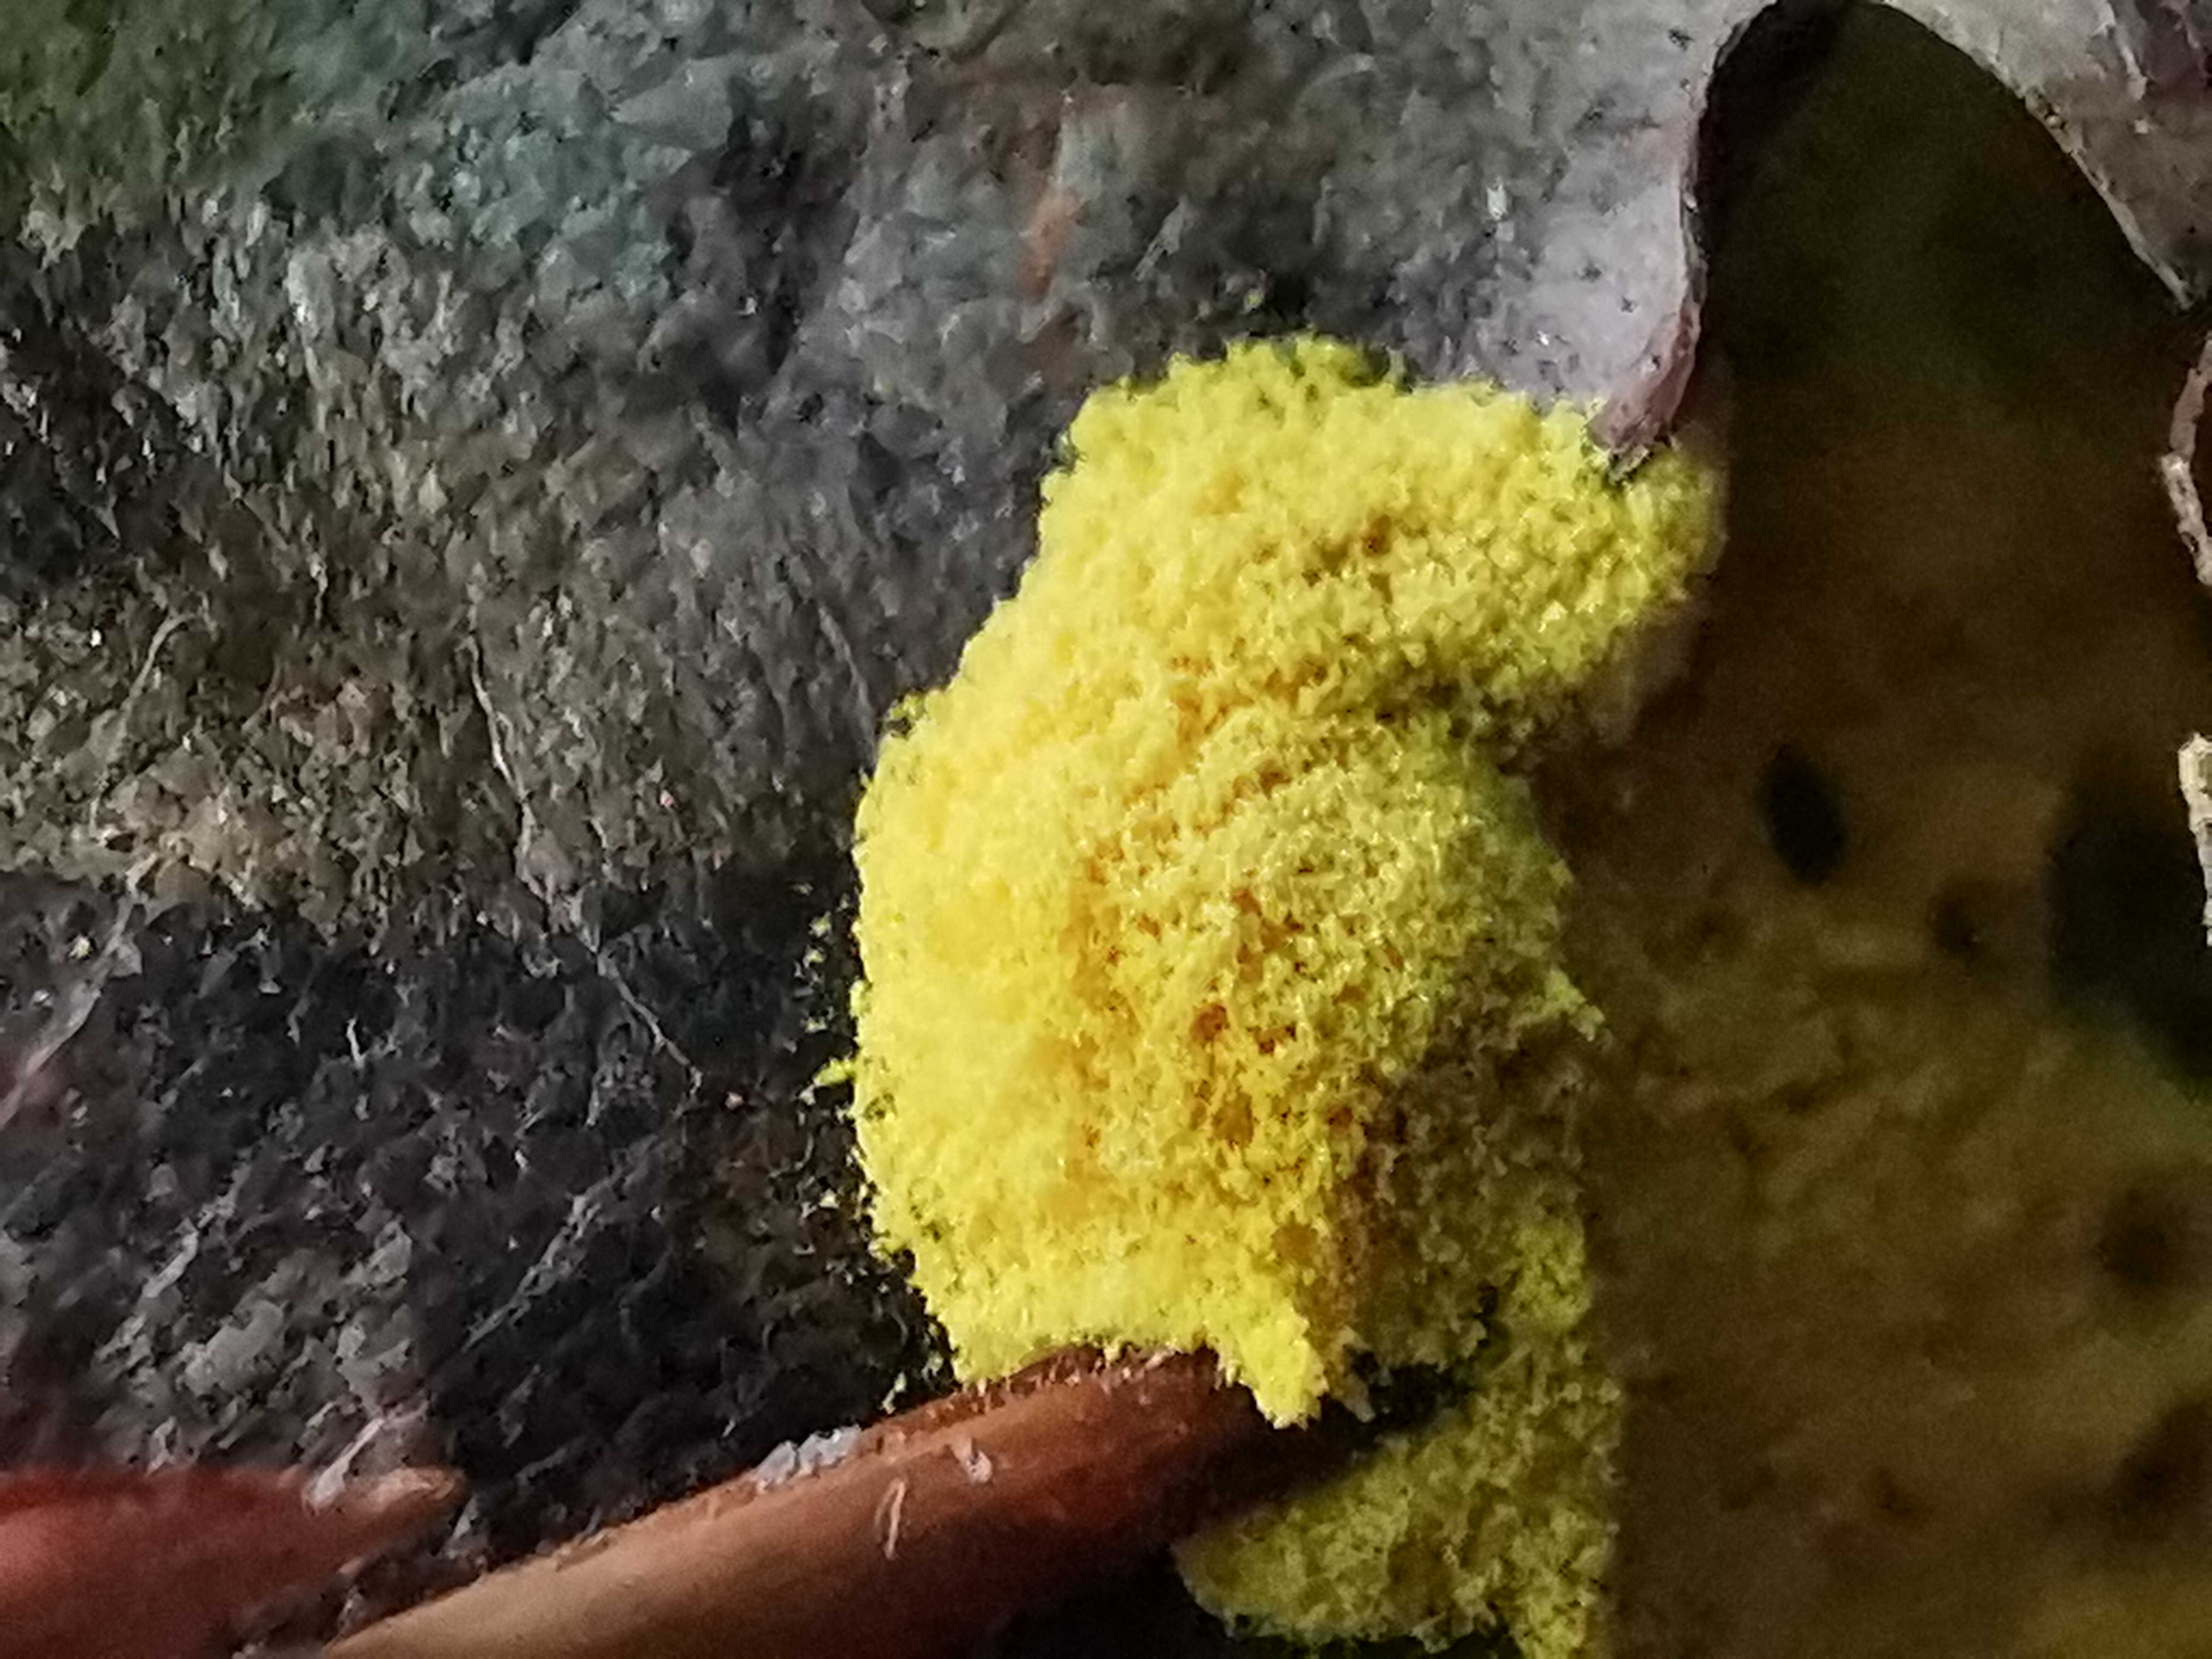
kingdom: Protozoa
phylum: Mycetozoa
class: Myxomycetes
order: Physarales
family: Physaraceae
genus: Fuligo
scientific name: Fuligo septica
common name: gul troldsmør
